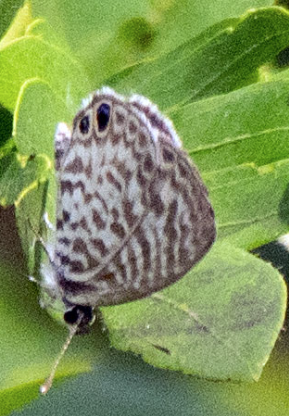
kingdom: Animalia
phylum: Arthropoda
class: Insecta
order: Lepidoptera
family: Lycaenidae
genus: Leptotes
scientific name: Leptotes cassius
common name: Cassius Blue
